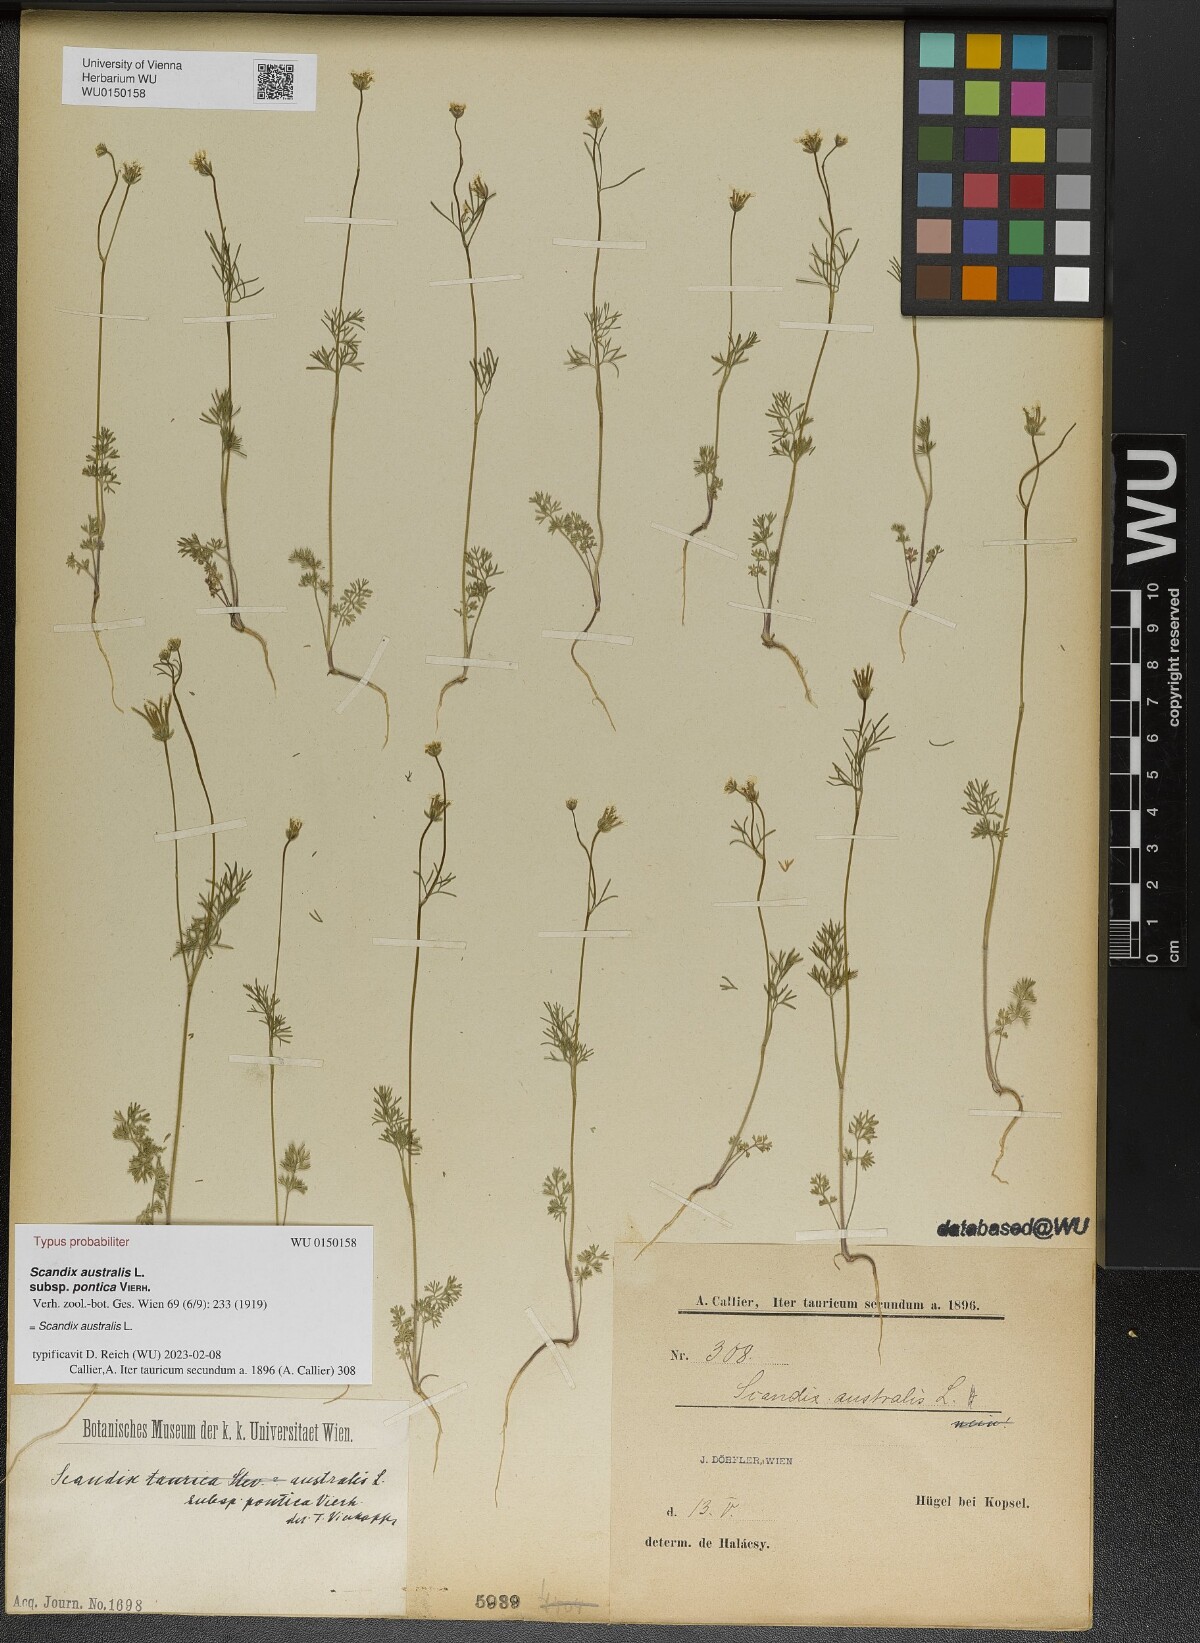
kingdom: Plantae
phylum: Tracheophyta
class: Magnoliopsida
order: Apiales
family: Apiaceae
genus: Scandix
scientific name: Scandix australis
